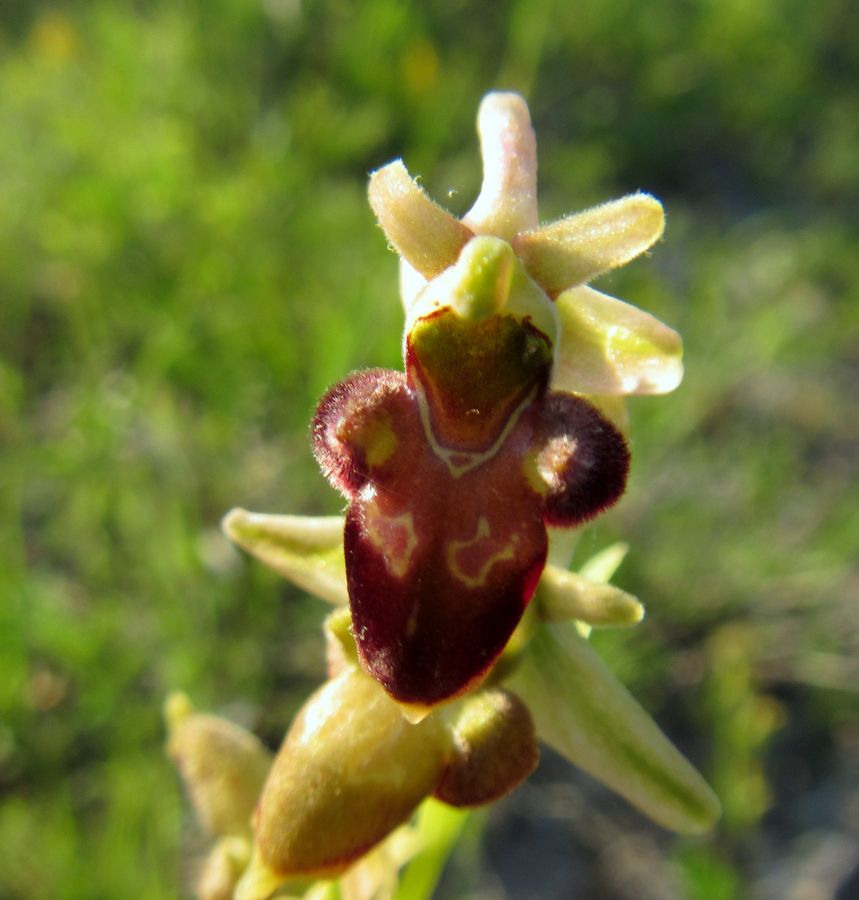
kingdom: Plantae
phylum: Tracheophyta
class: Liliopsida
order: Asparagales
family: Orchidaceae
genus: Ophrys
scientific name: Ophrys sphegodes
